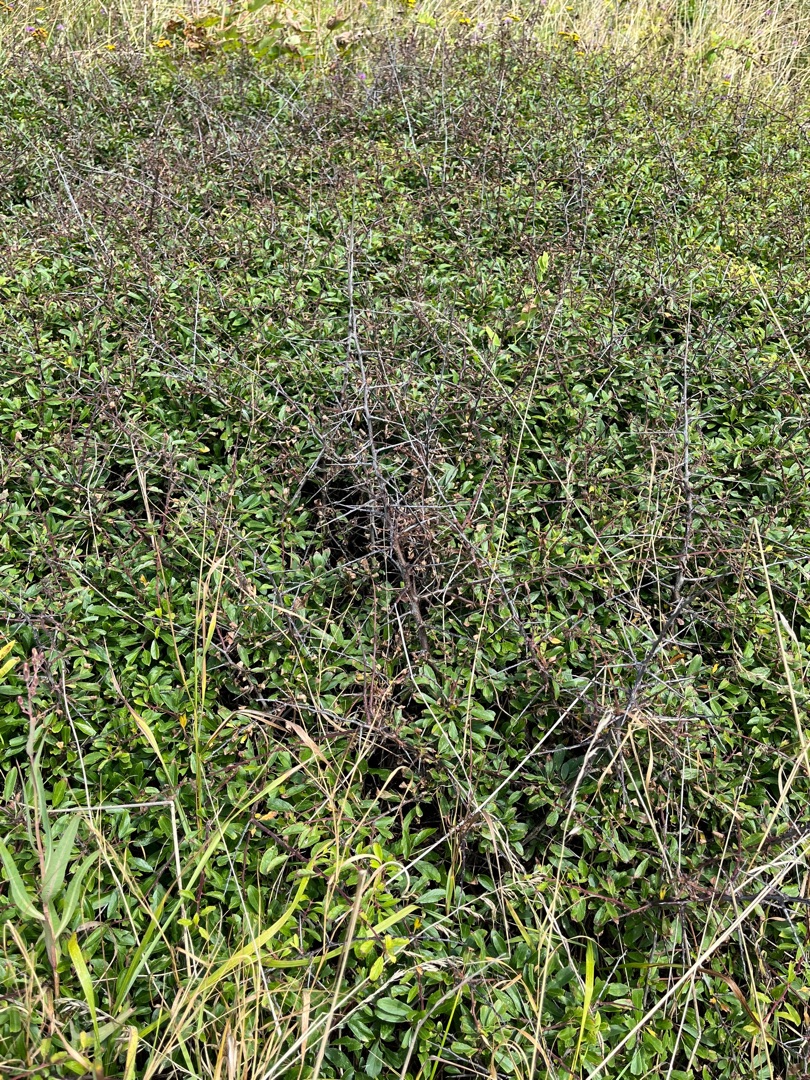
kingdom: Plantae
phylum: Tracheophyta
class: Magnoliopsida
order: Rosales
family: Rosaceae
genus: Prunus
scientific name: Prunus spinosa
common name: Slåen
